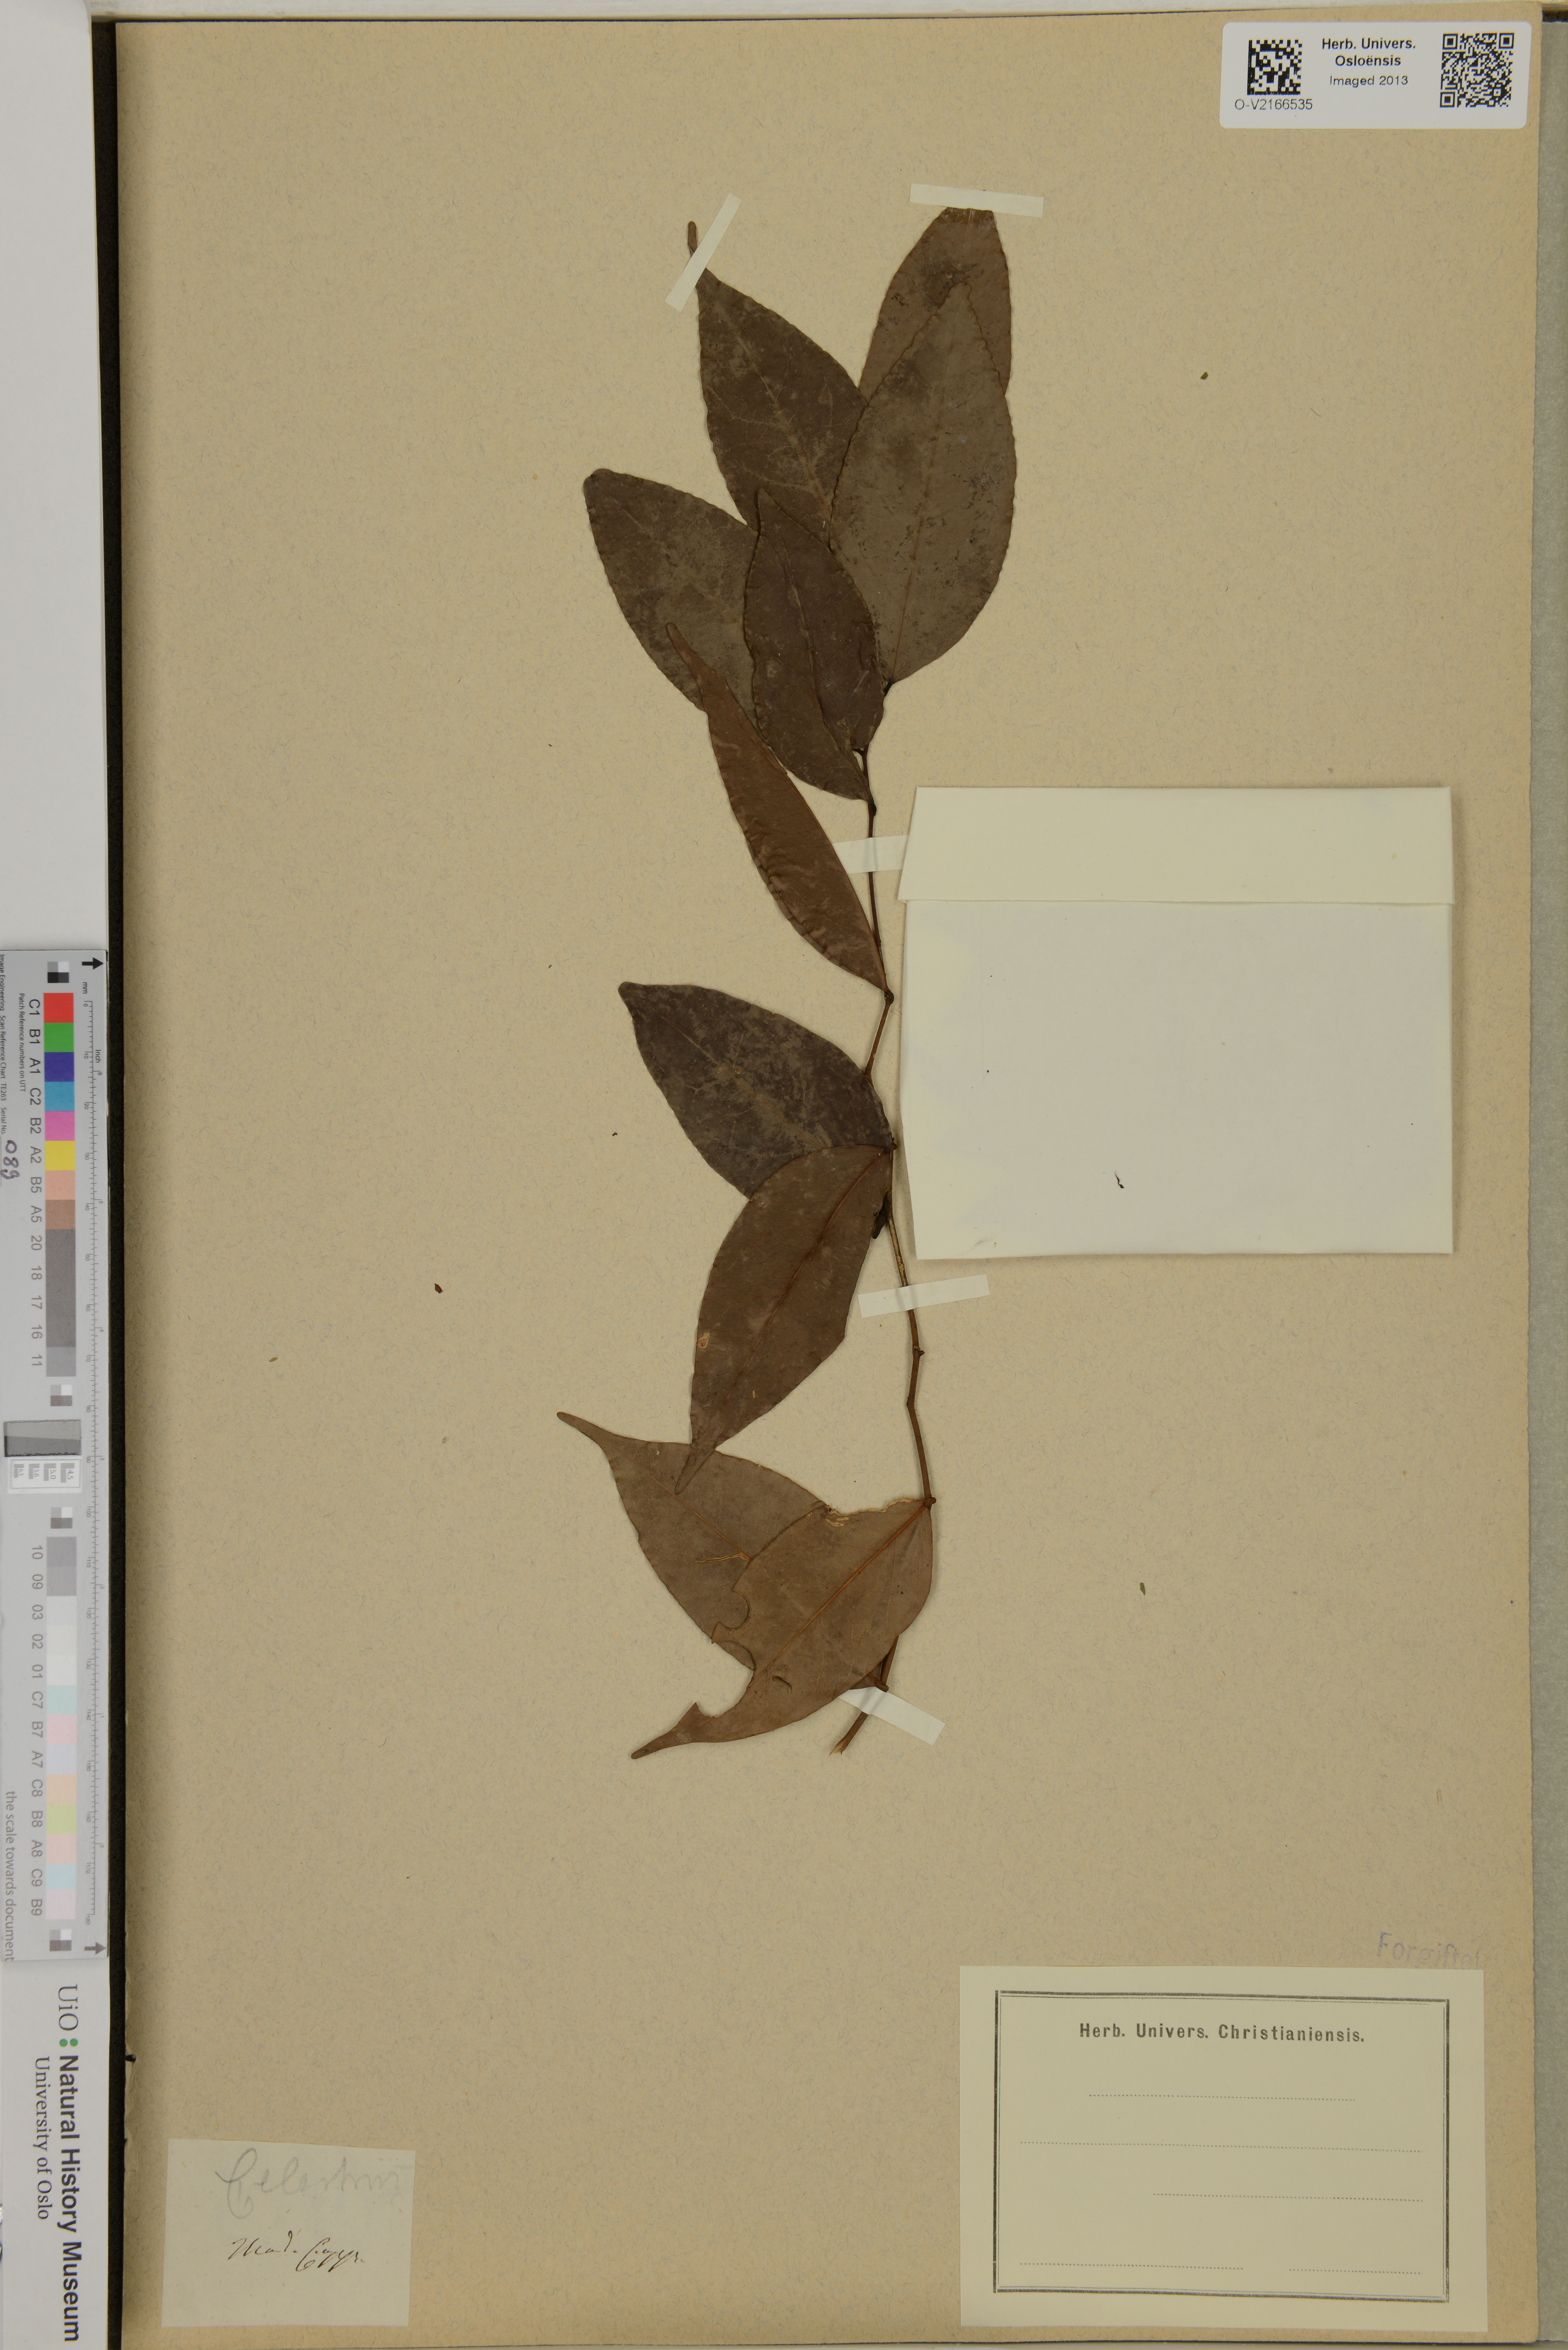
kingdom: Plantae
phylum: Tracheophyta
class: Magnoliopsida
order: Celastrales
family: Celastraceae
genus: Celastrus
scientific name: Celastrus
